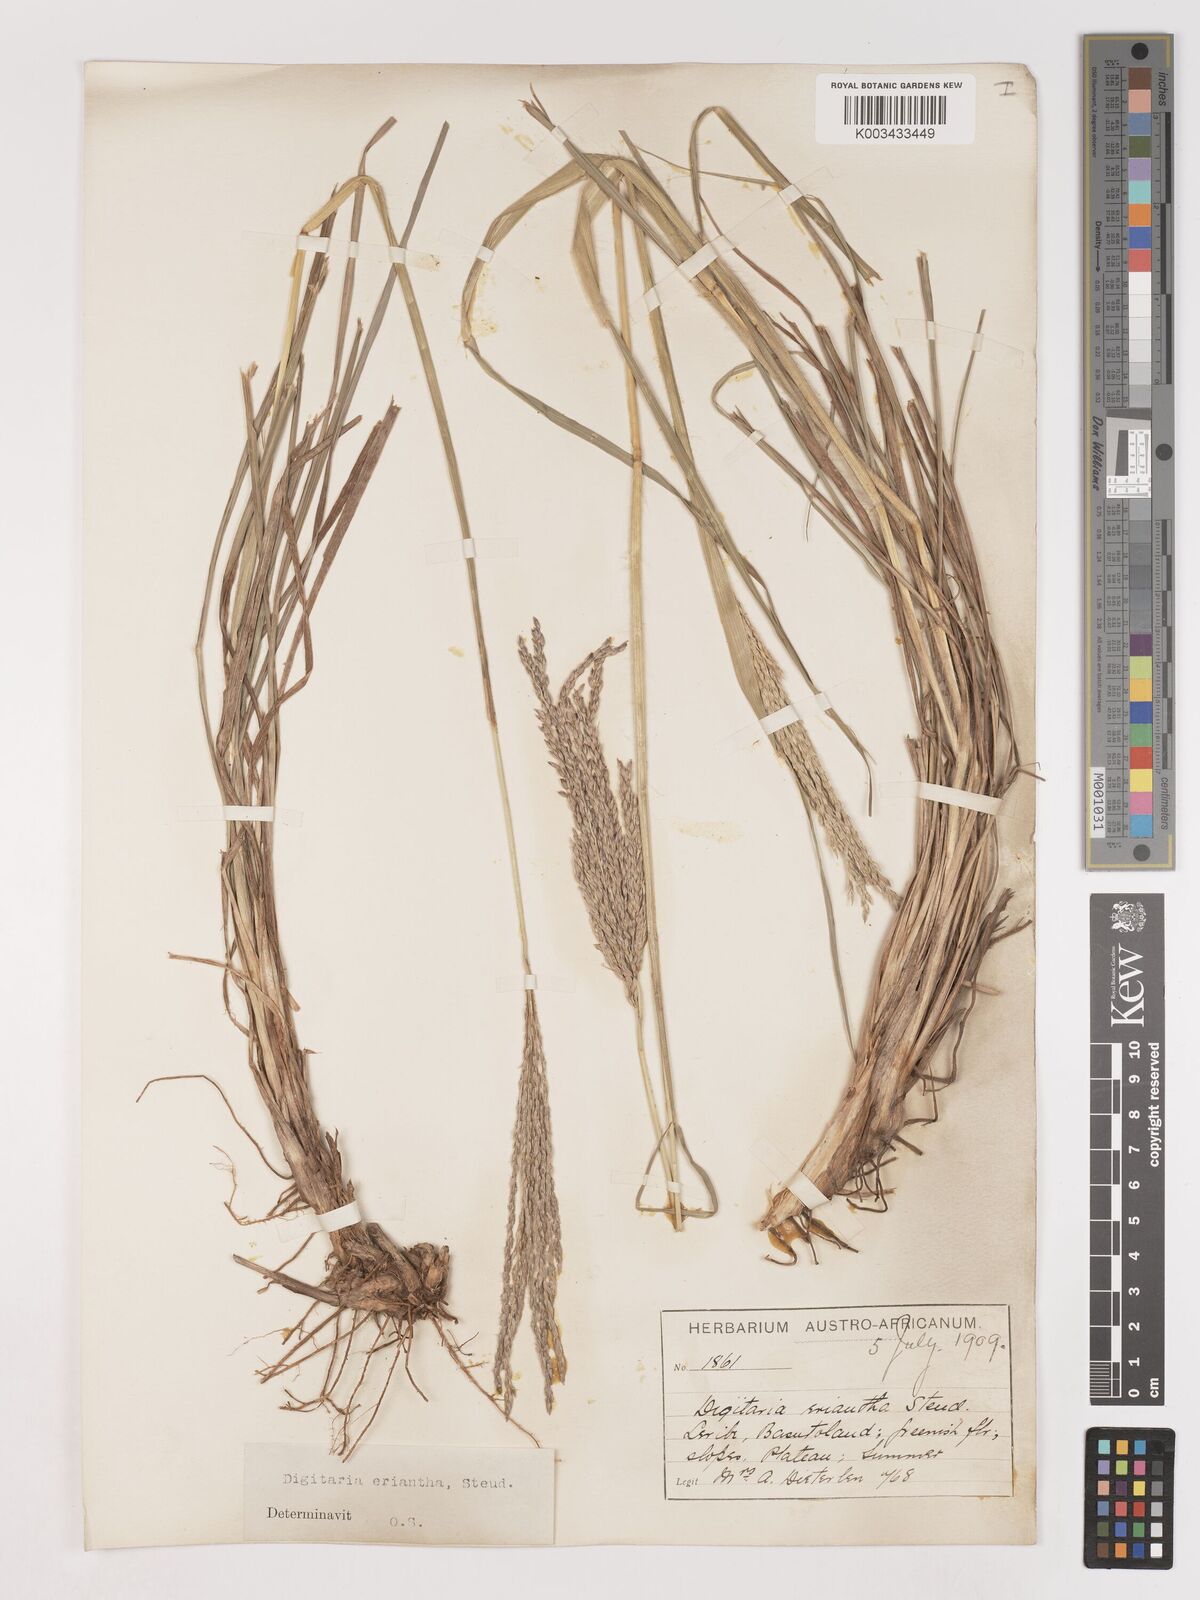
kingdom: Plantae
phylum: Tracheophyta
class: Liliopsida
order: Poales
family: Poaceae
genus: Digitaria
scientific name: Digitaria eriantha
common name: Digitgrass
